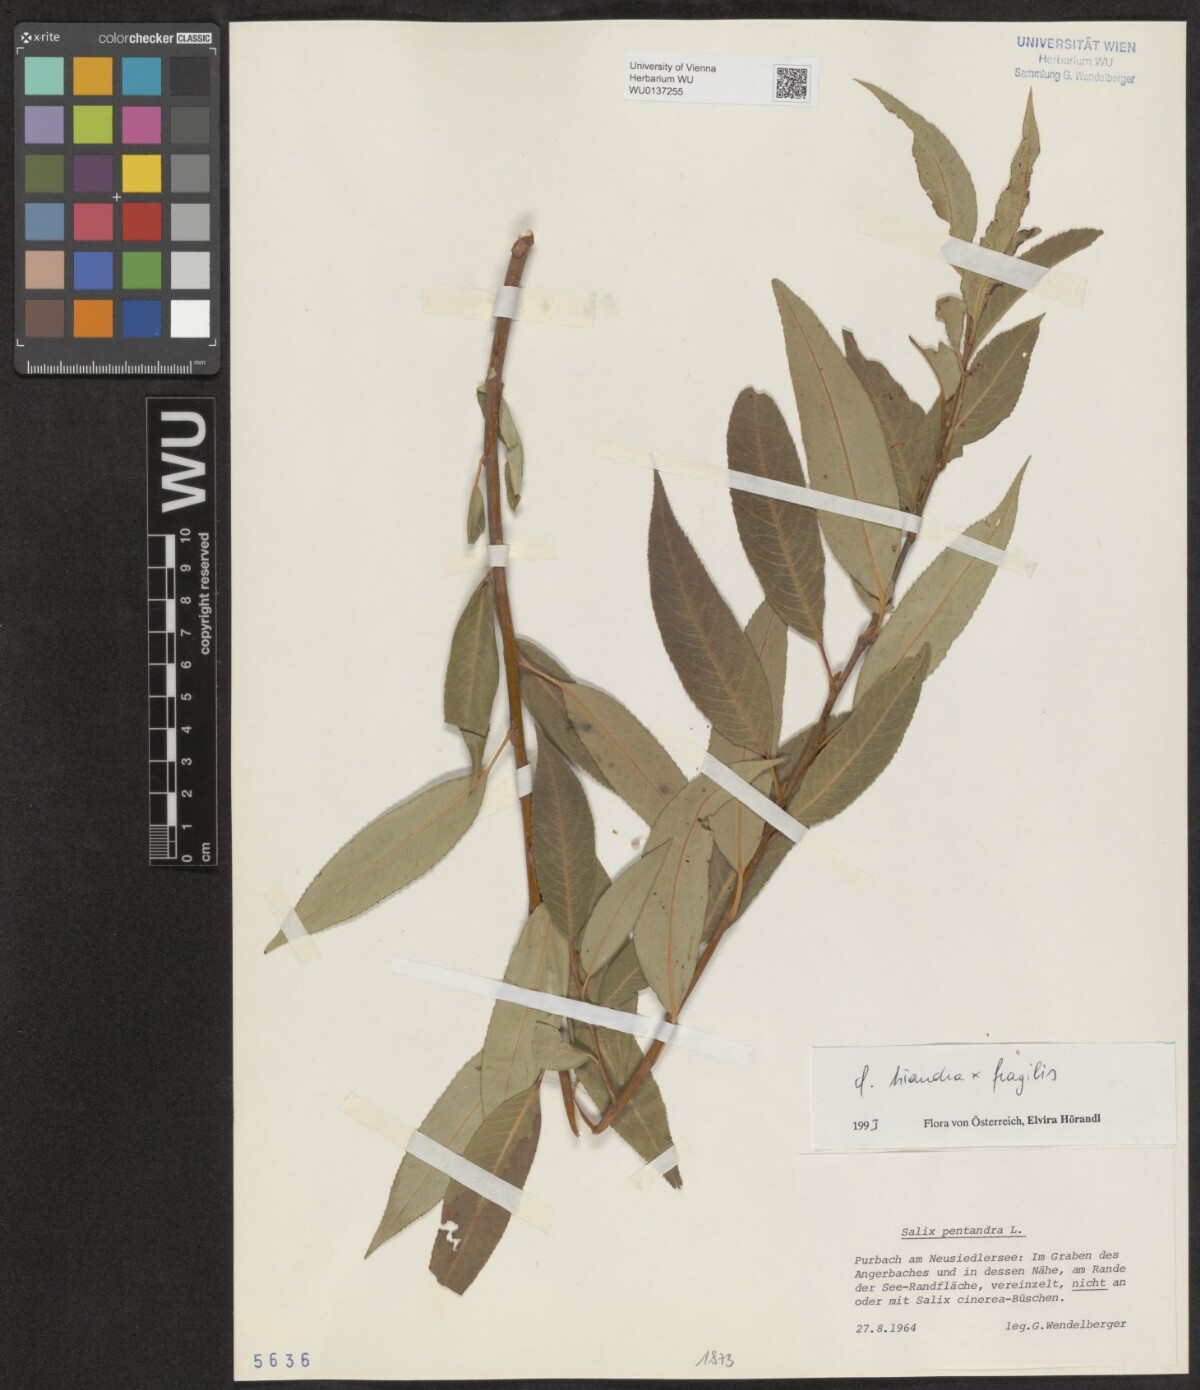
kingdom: Plantae
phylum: Tracheophyta
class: Magnoliopsida
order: Malpighiales
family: Salicaceae
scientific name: Salicaceae
